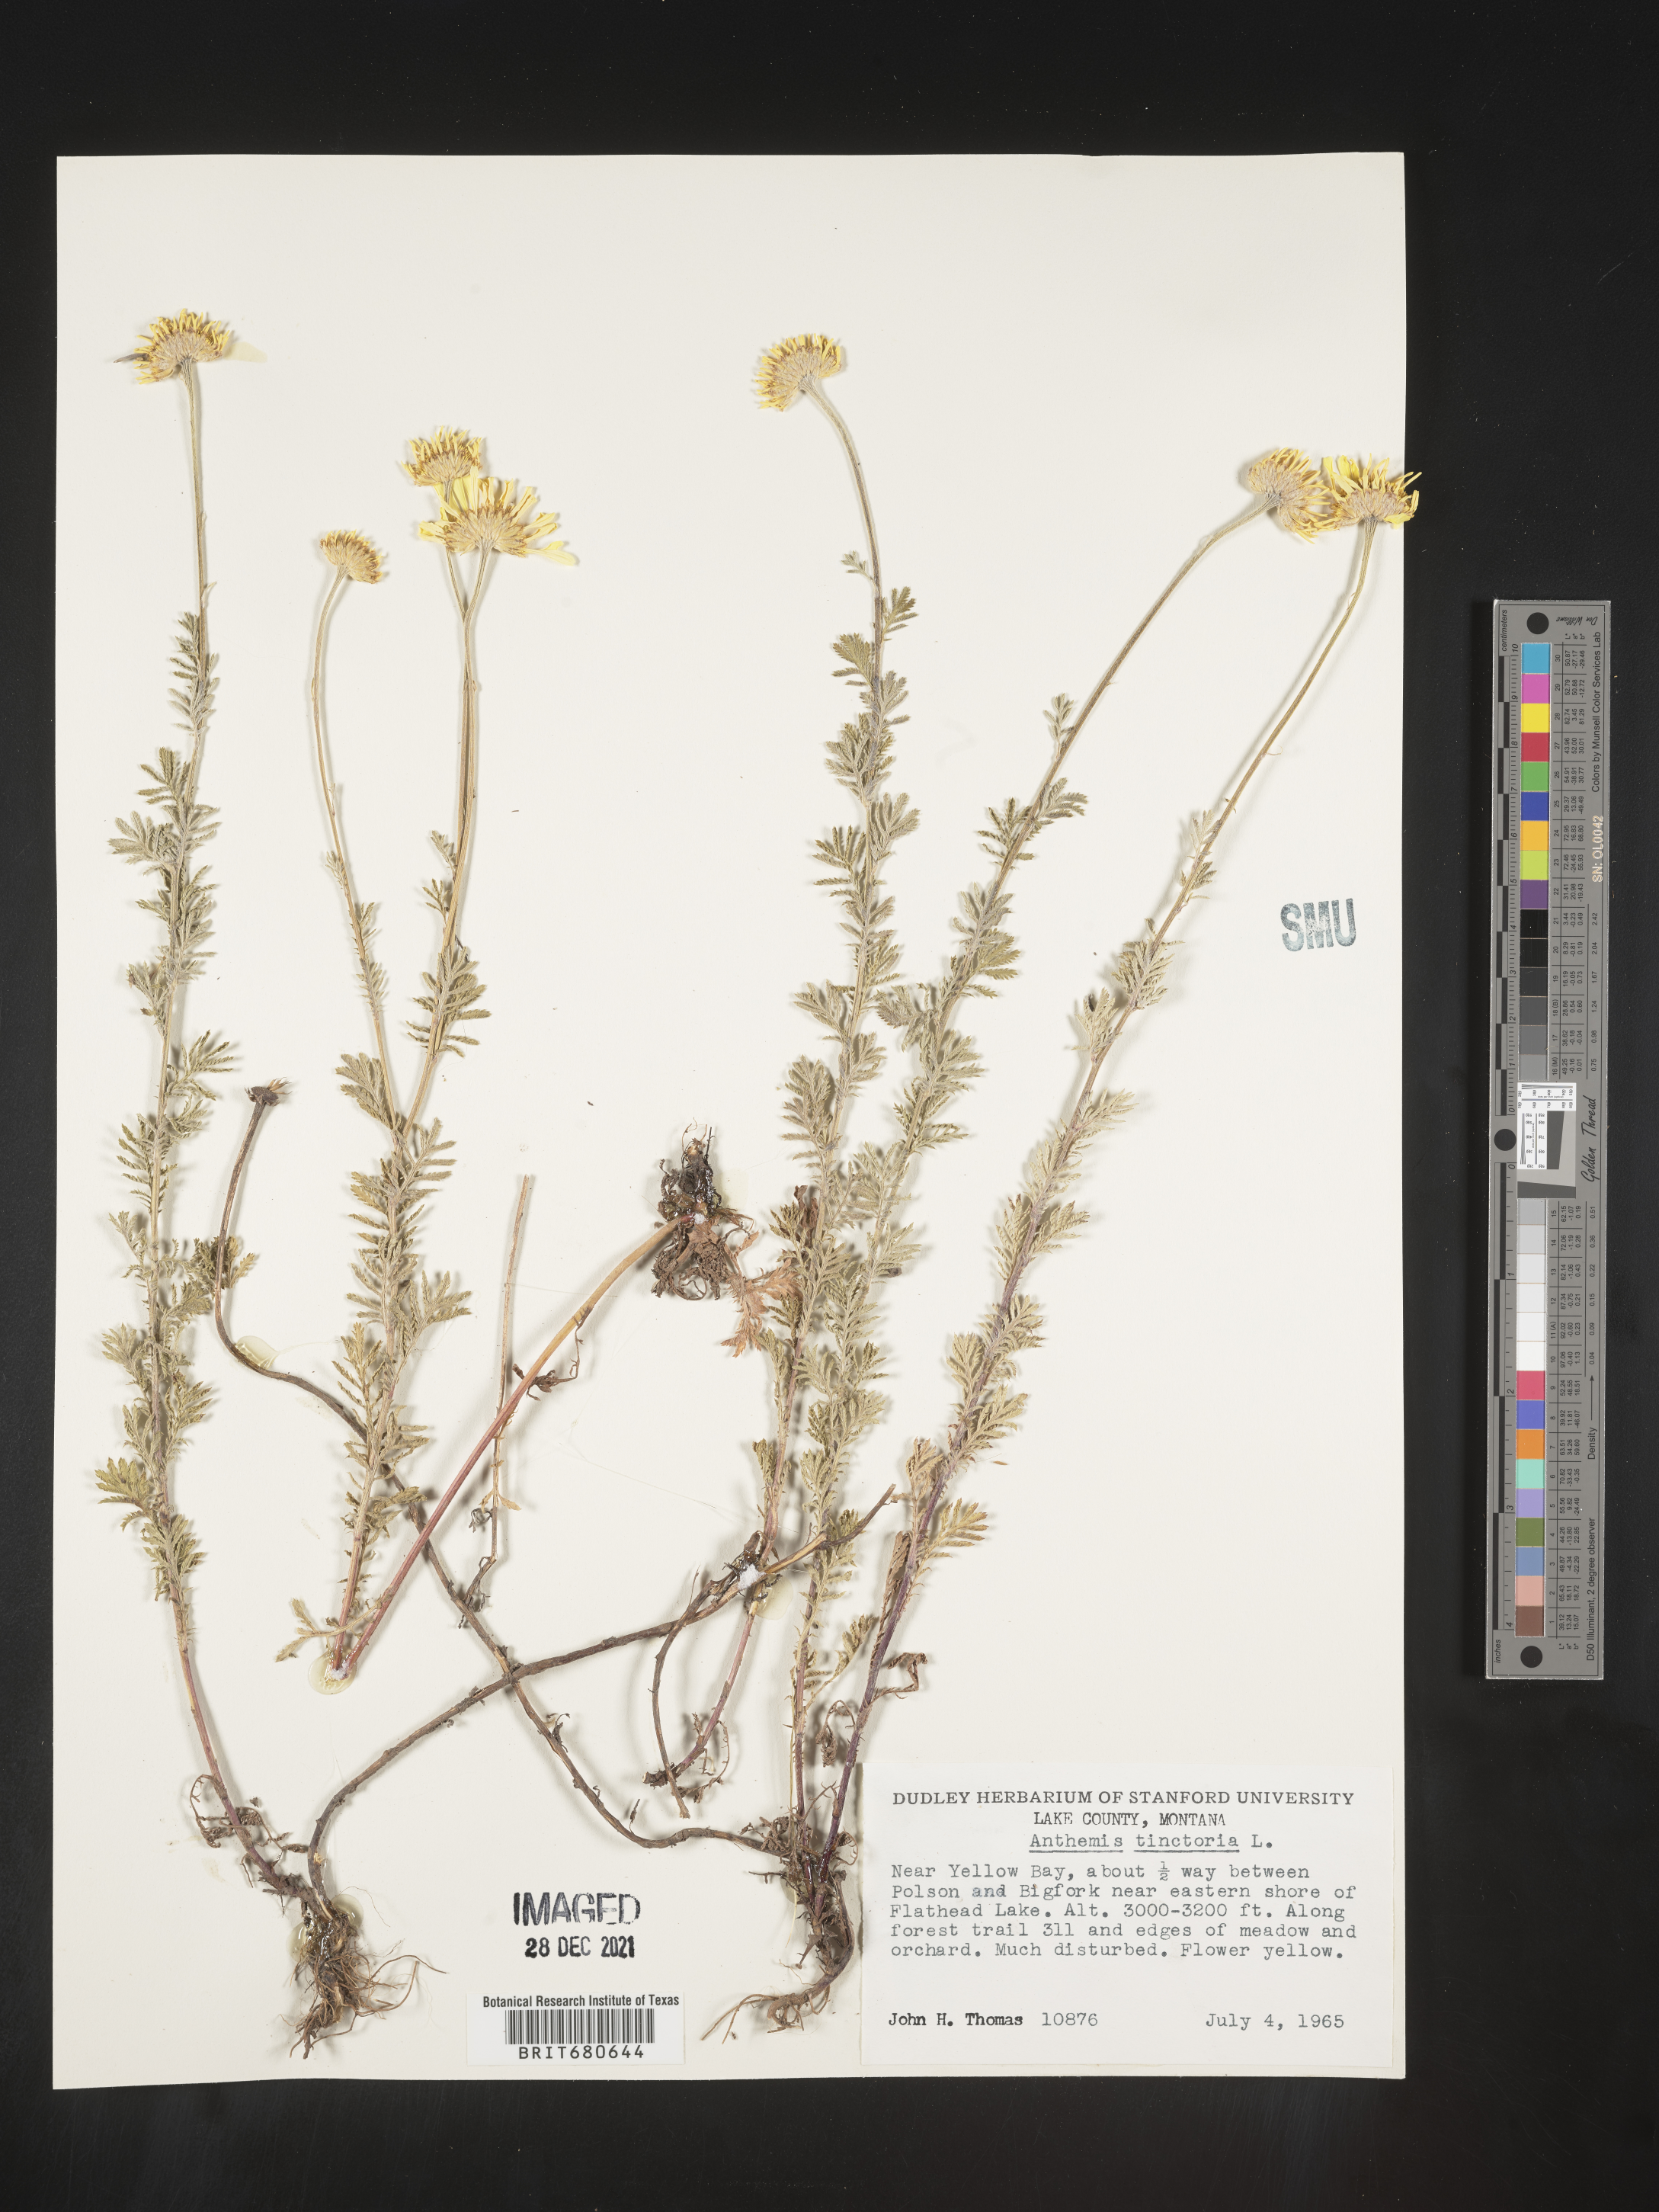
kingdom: Plantae
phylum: Tracheophyta
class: Magnoliopsida
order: Asterales
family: Asteraceae
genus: Anthemis
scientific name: Anthemis
